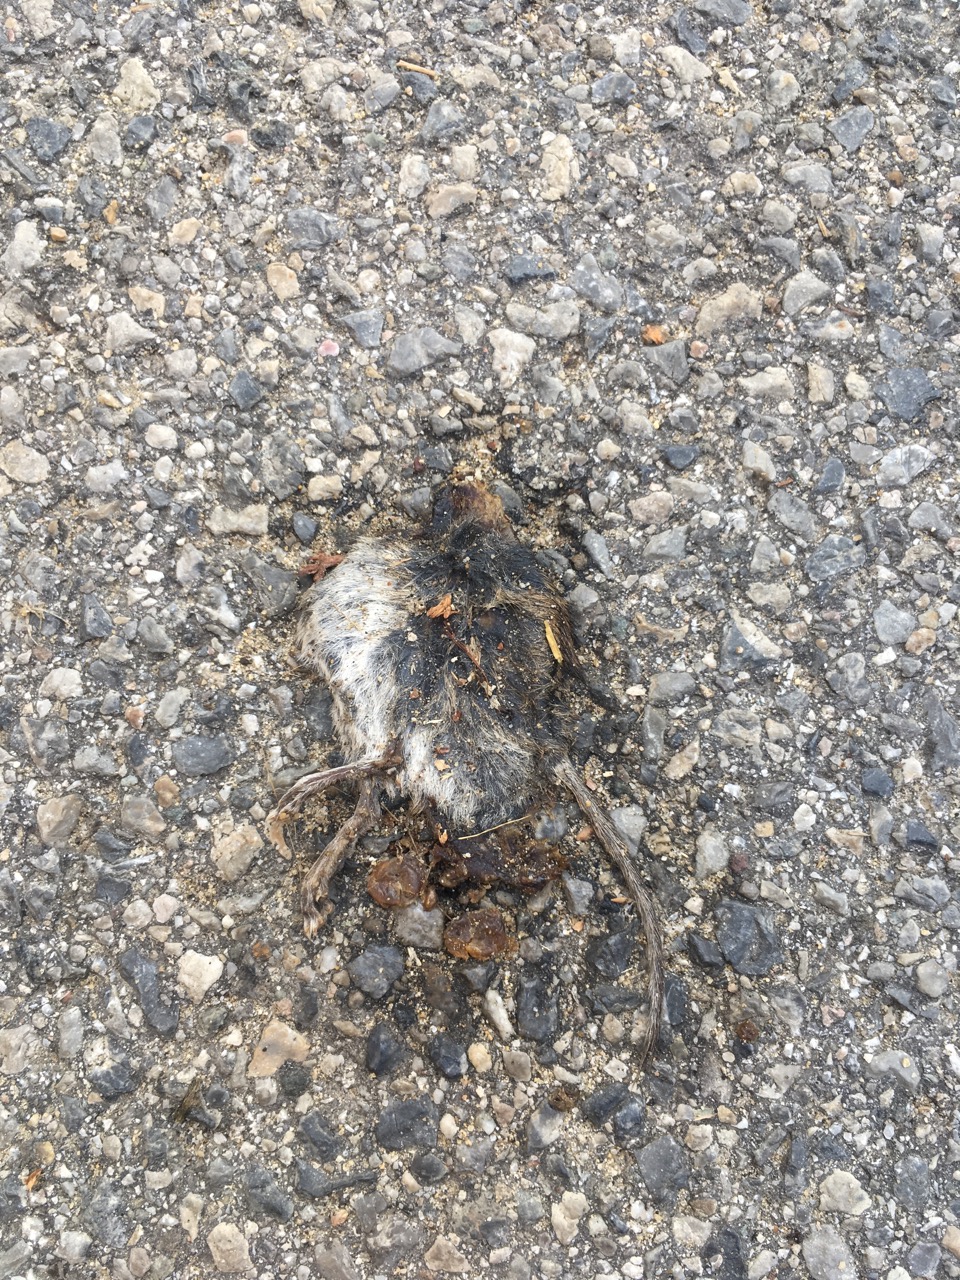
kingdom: Animalia
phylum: Chordata
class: Mammalia
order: Rodentia
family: Muridae
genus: Apodemus
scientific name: Apodemus
